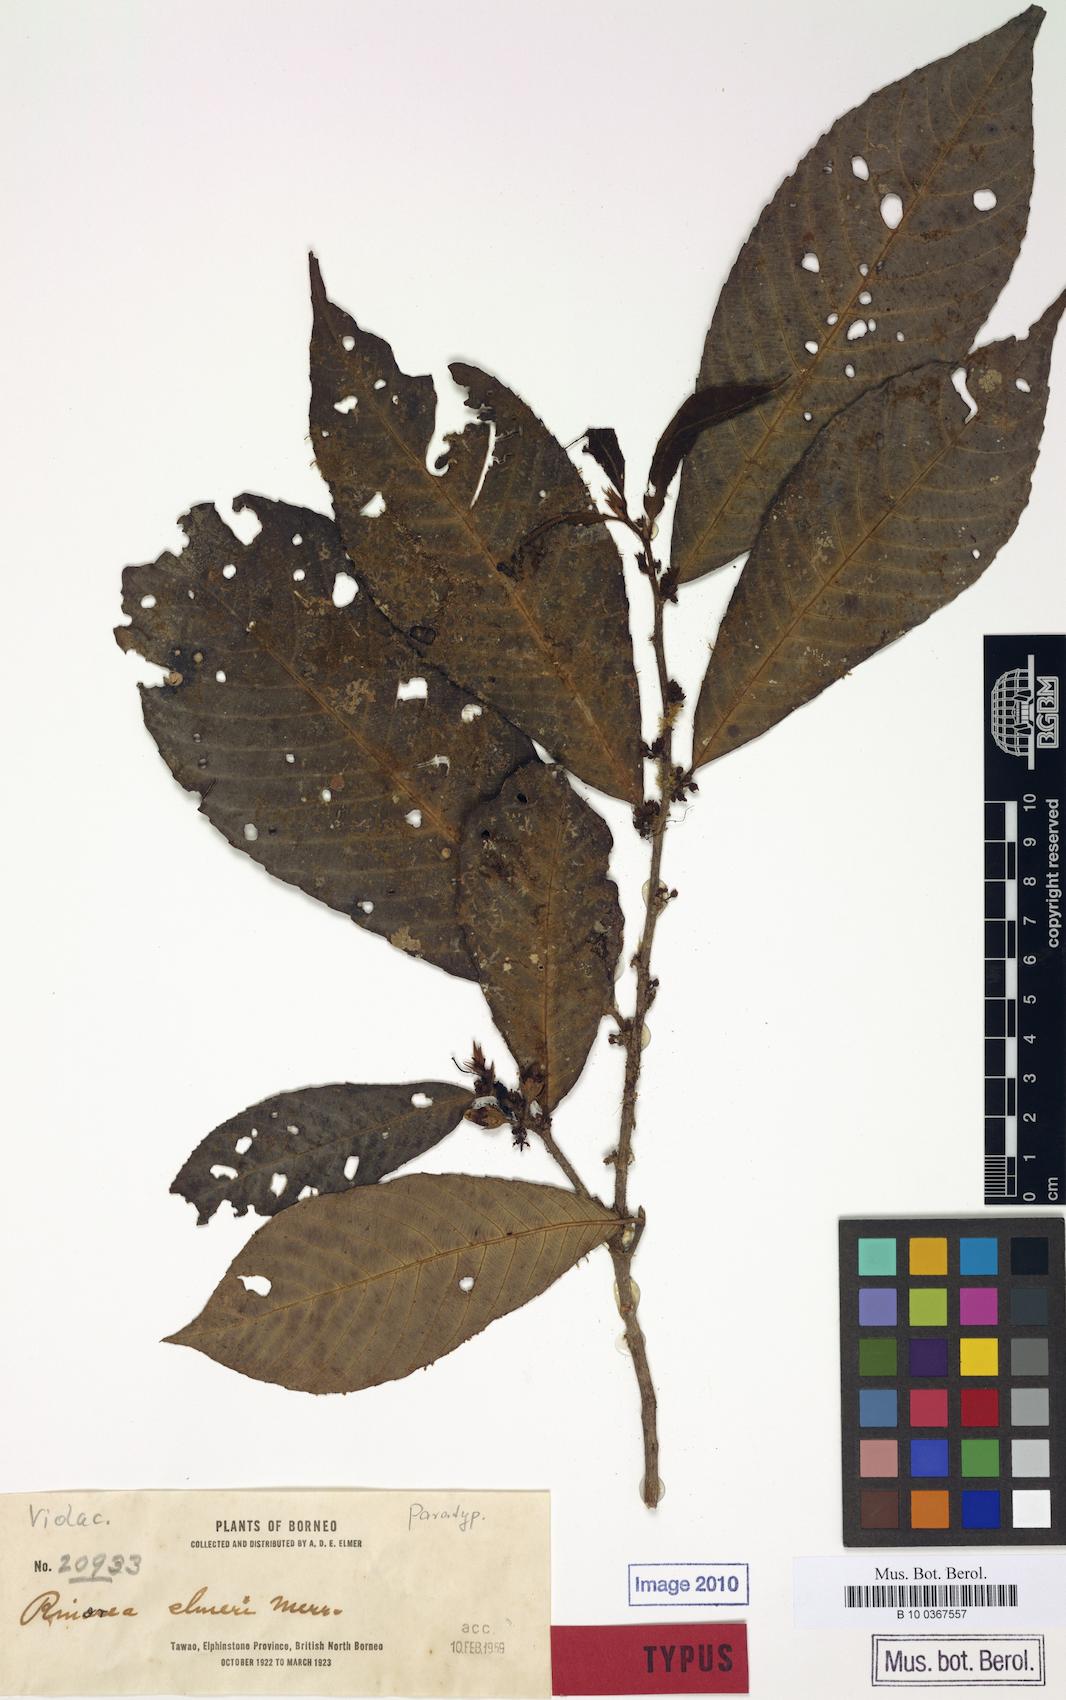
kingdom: Plantae
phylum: Tracheophyta
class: Magnoliopsida
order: Malpighiales
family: Violaceae
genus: Rinorea
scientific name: Rinorea horneri
